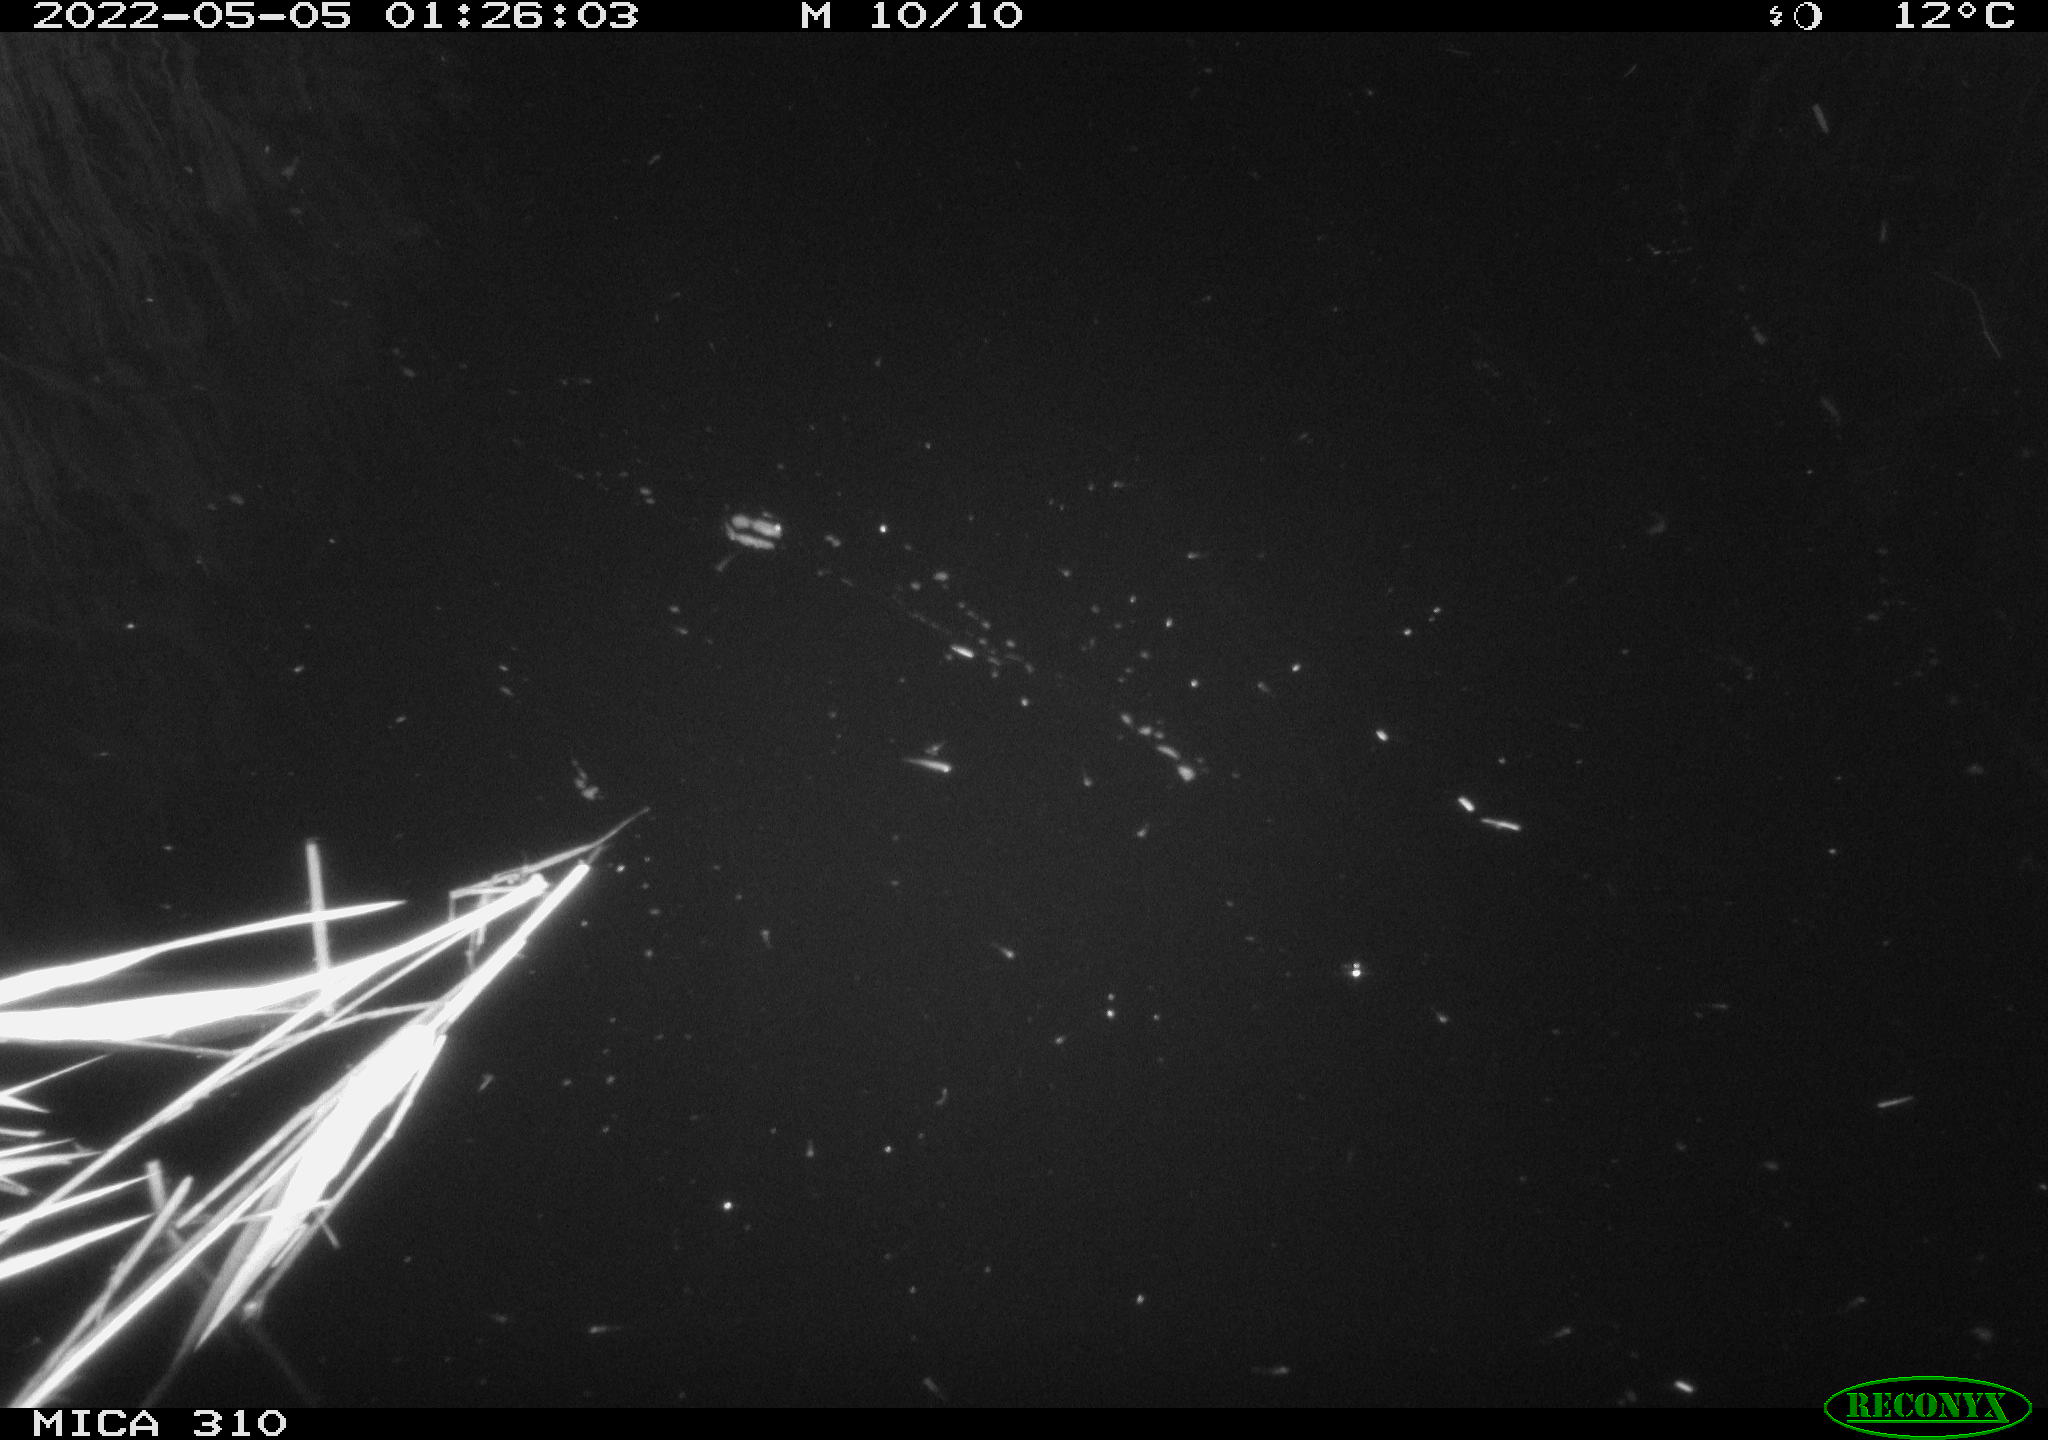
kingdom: Animalia
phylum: Chordata
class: Aves
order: Anseriformes
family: Anatidae
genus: Anas
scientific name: Anas platyrhynchos
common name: Mallard
